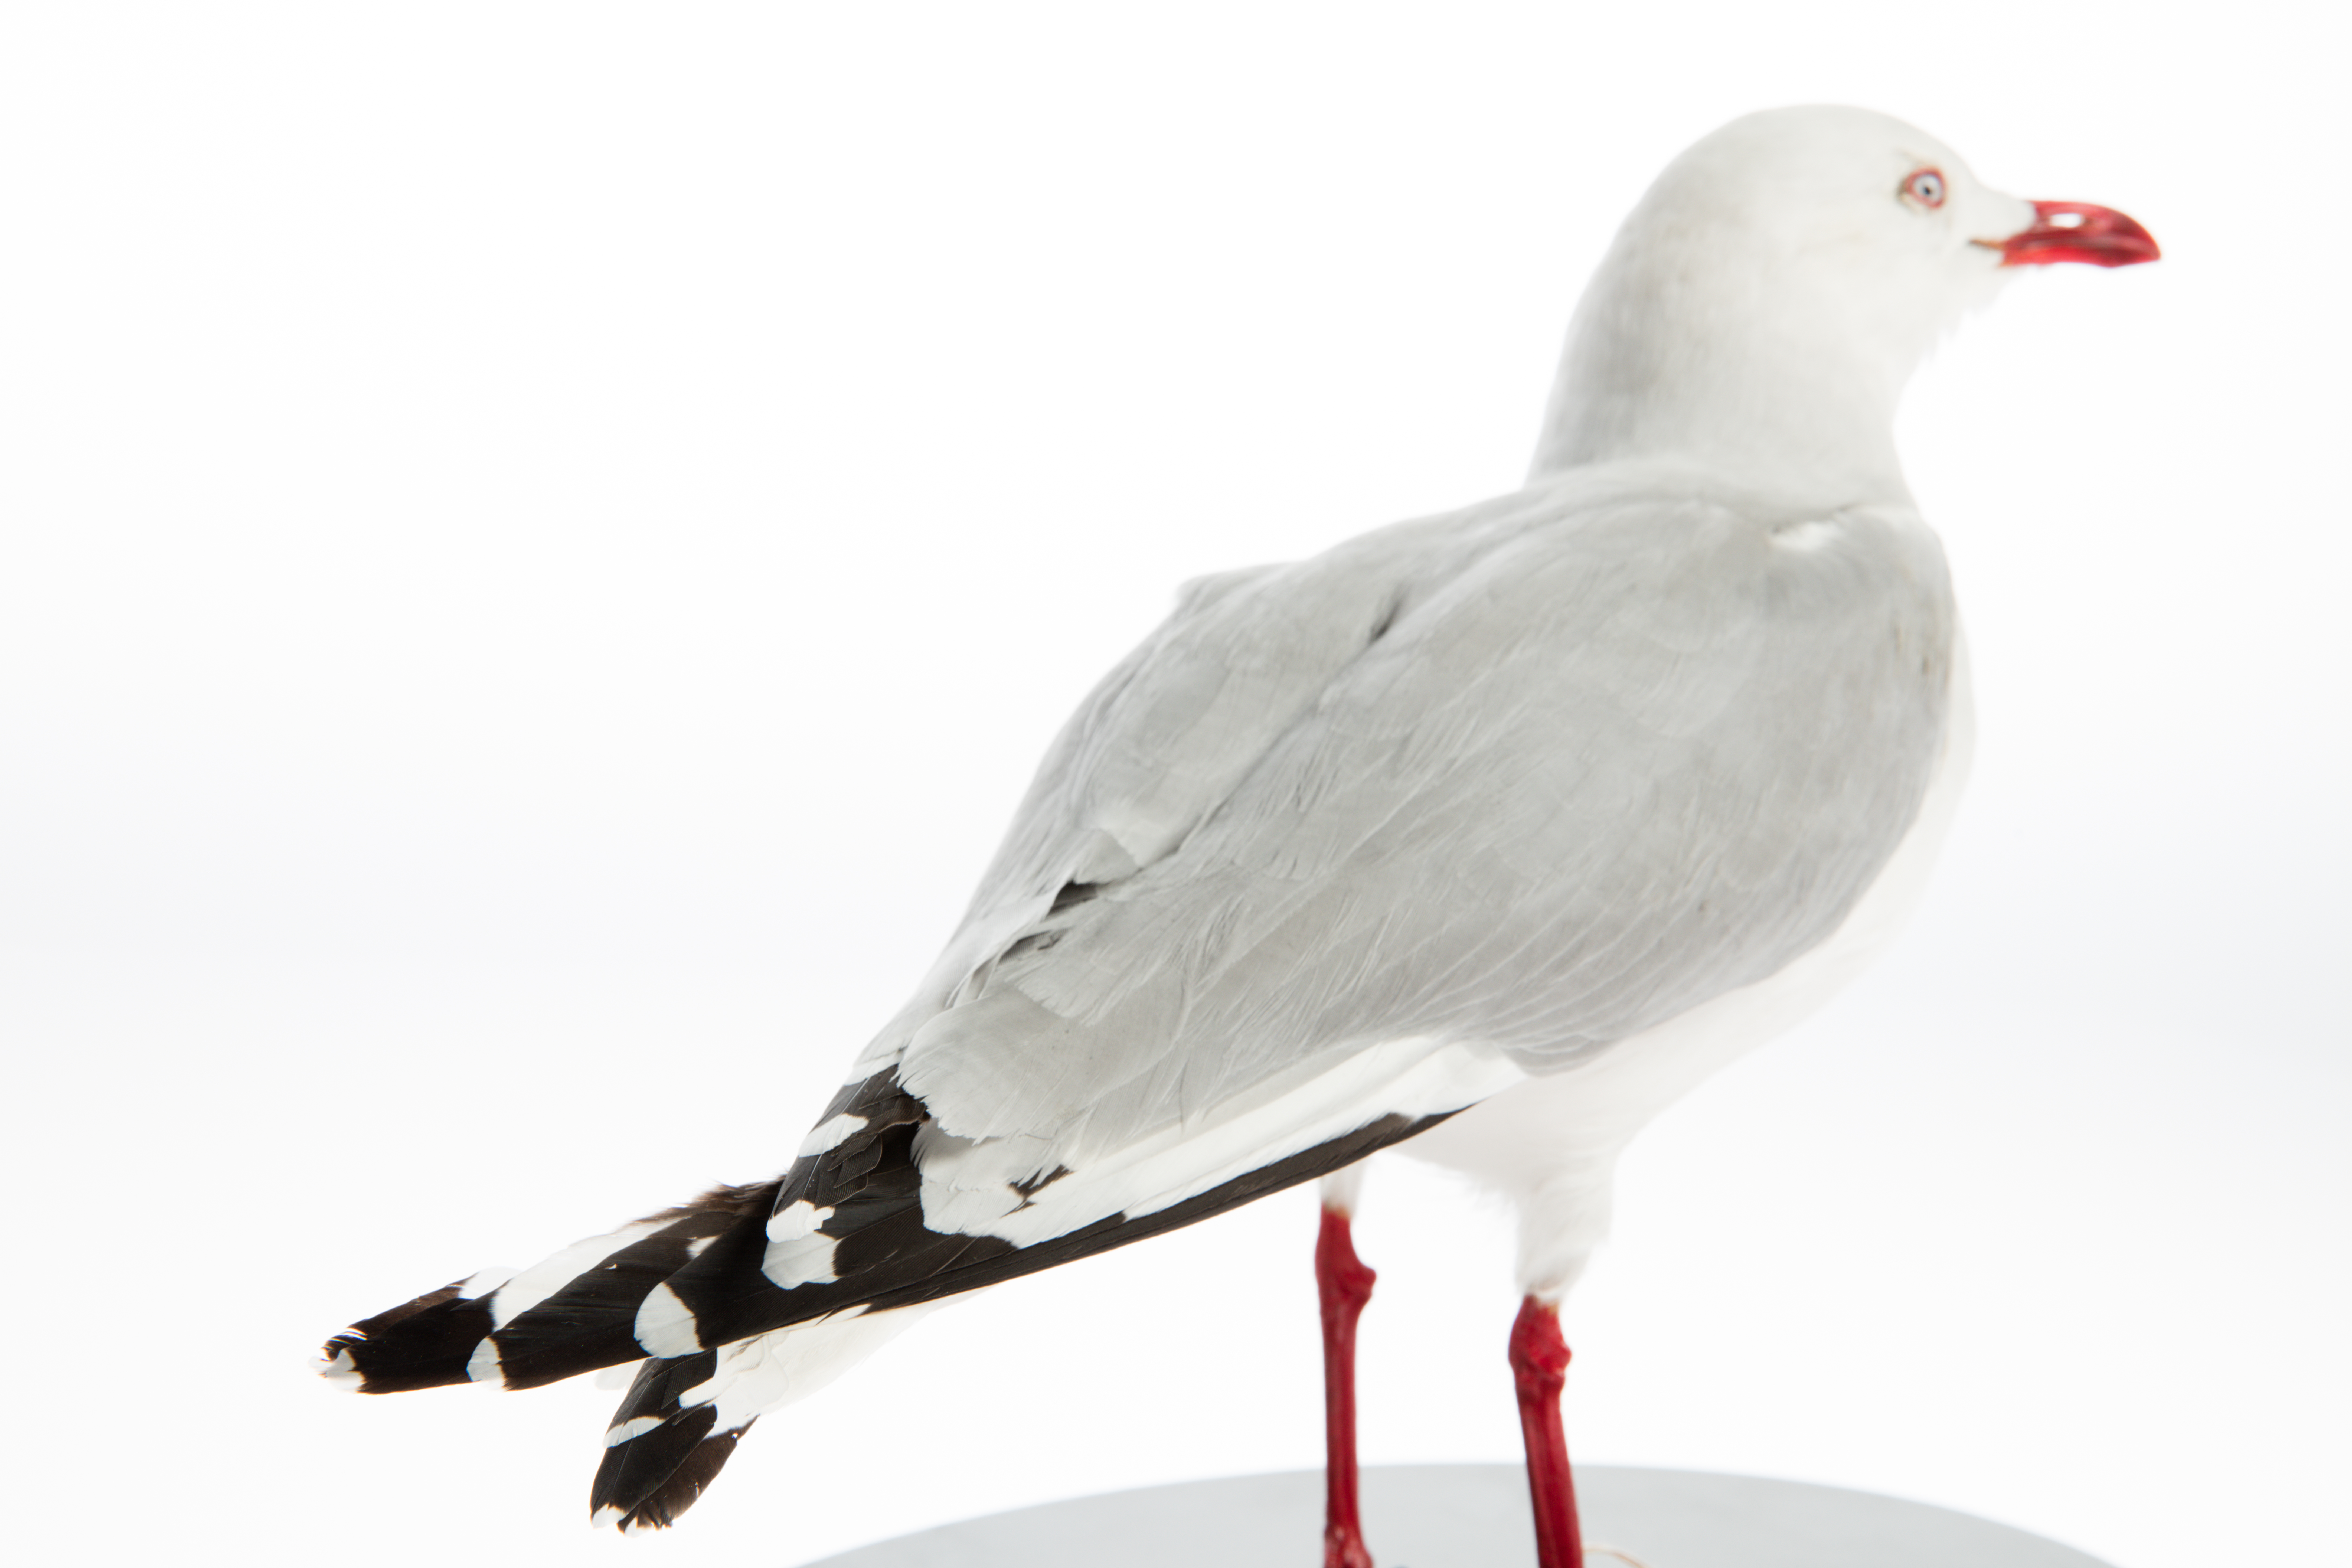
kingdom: Animalia
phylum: Chordata
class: Aves
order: Charadriiformes
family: Laridae
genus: Chroicocephalus
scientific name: Chroicocephalus novaehollandiae
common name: Silver gull
